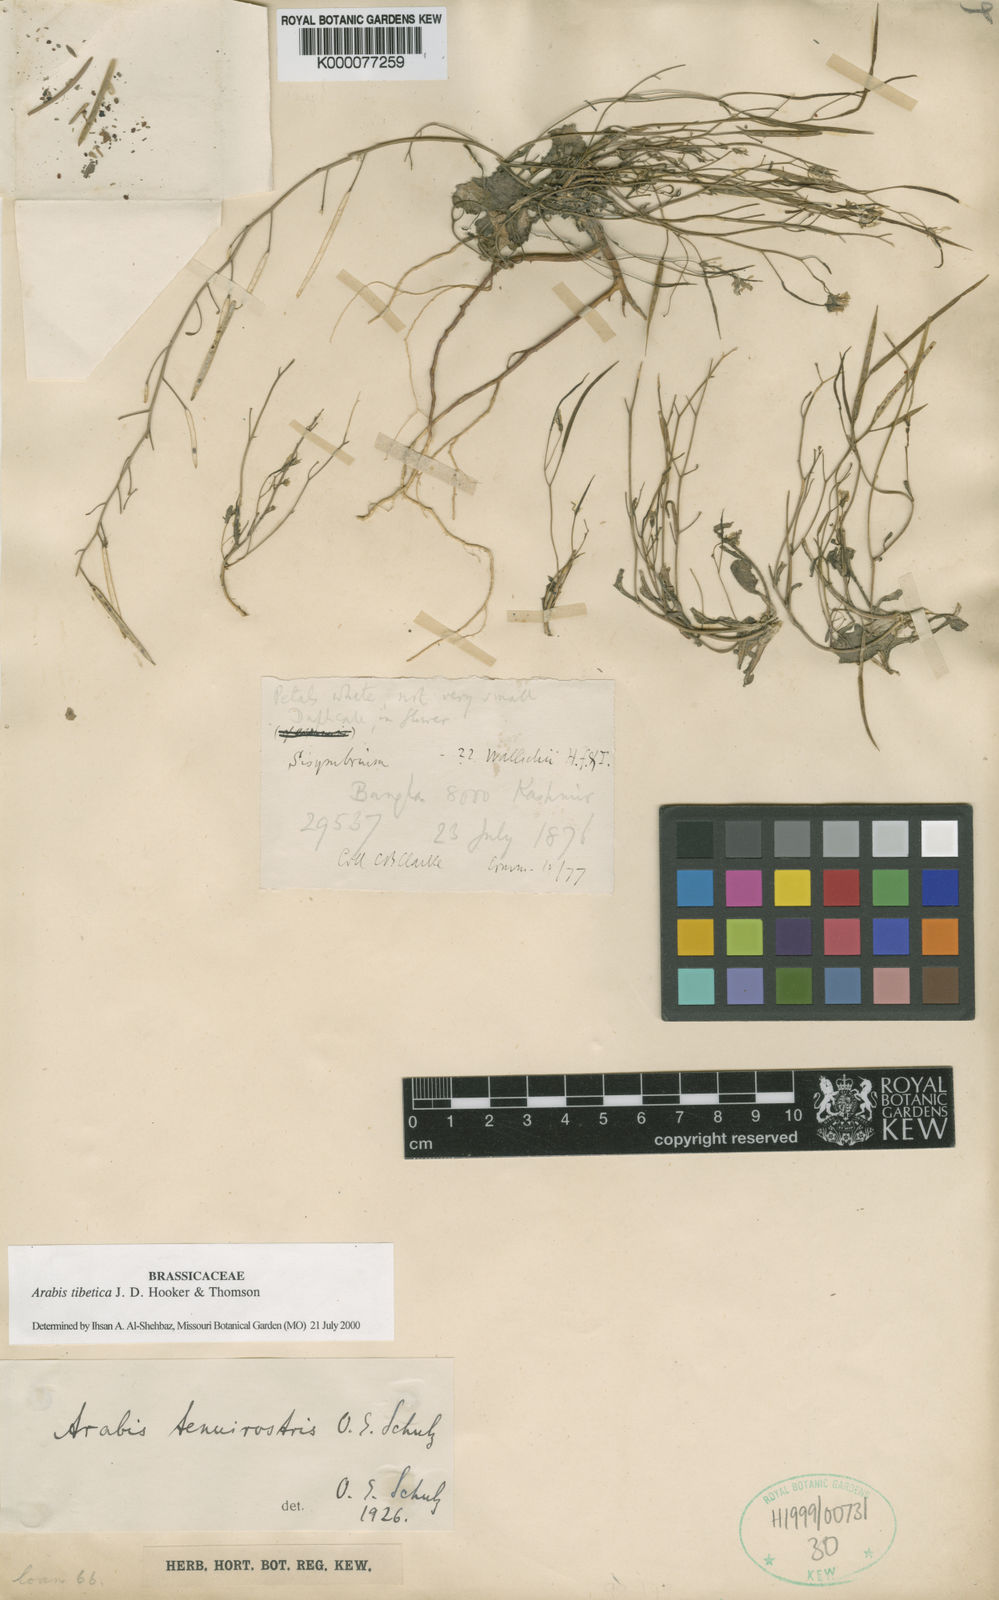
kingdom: Plantae
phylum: Tracheophyta
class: Magnoliopsida
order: Brassicales
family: Brassicaceae
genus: Crucihimalaya
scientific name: Crucihimalaya tibetica
